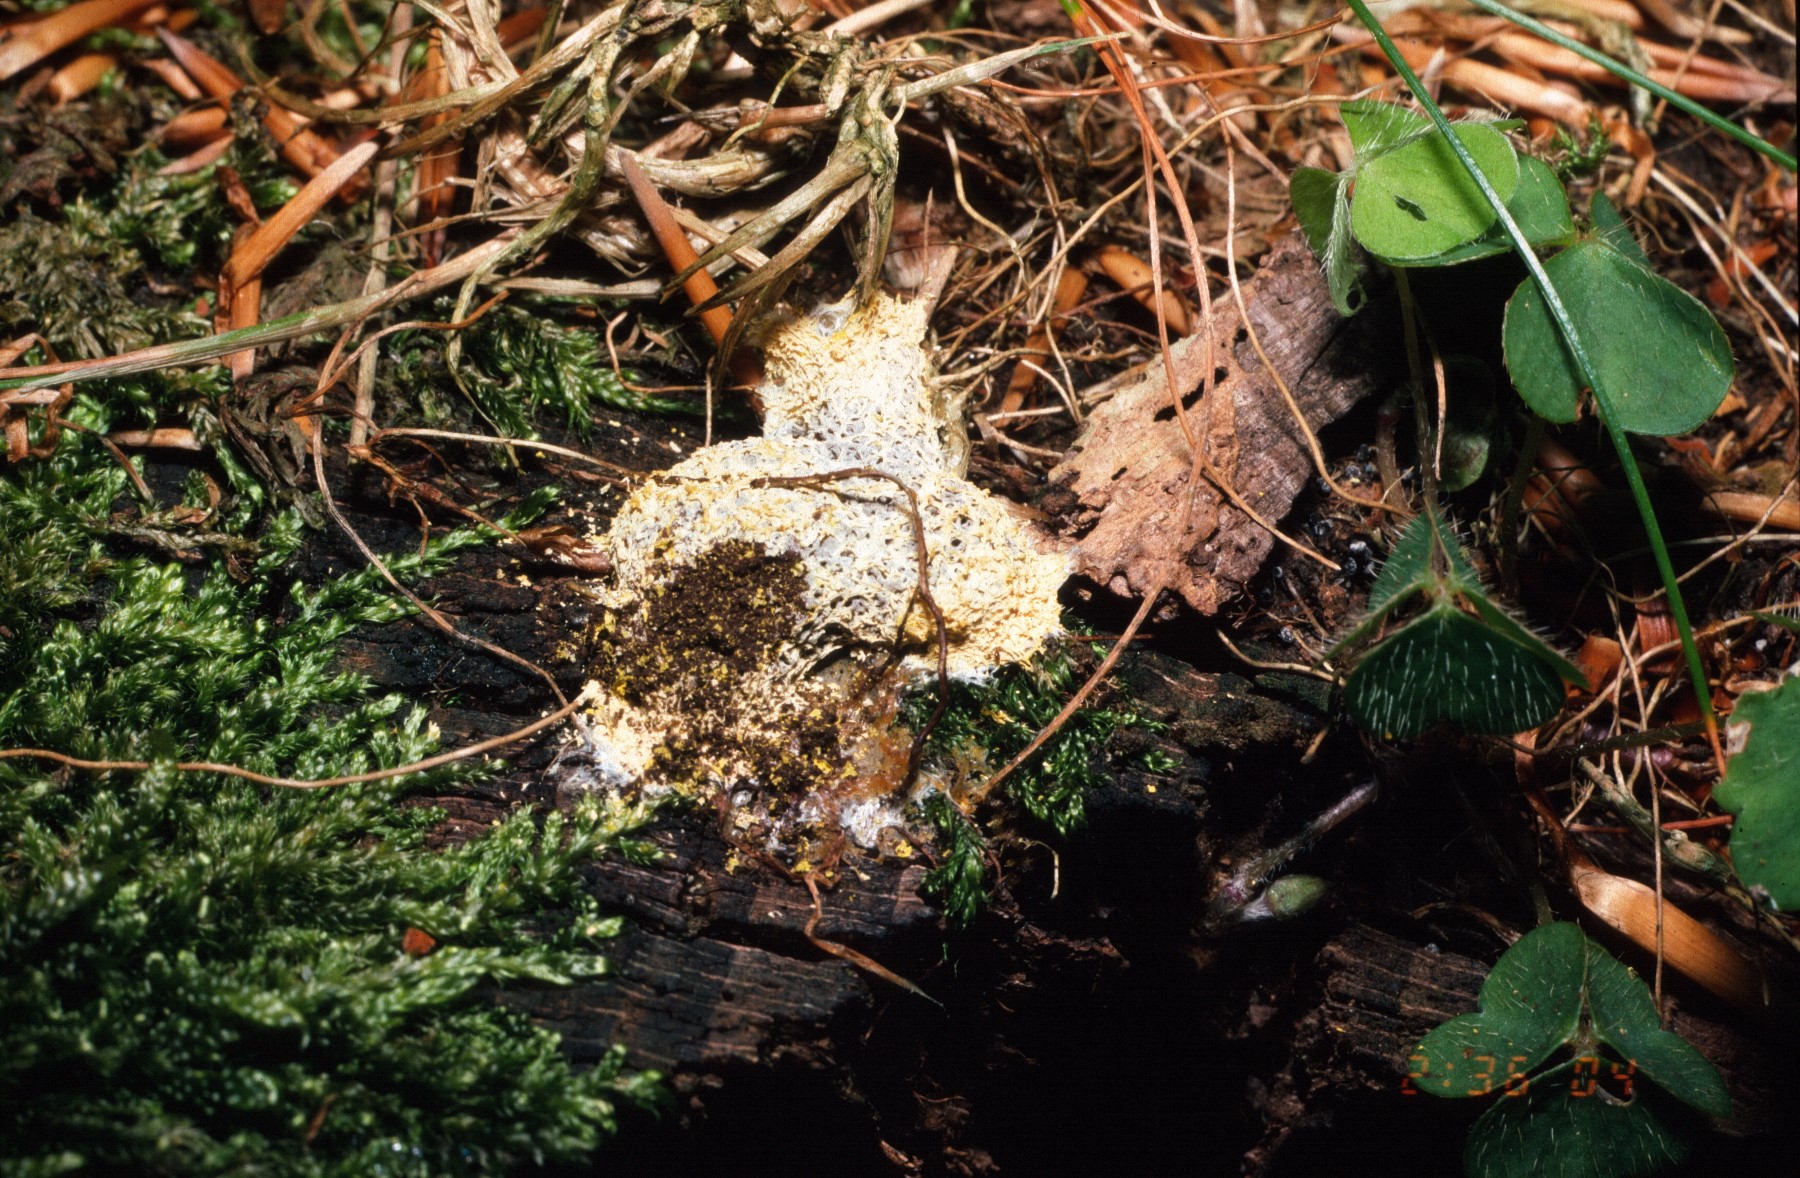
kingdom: Protozoa
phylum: Mycetozoa
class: Myxomycetes
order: Physarales
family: Physaraceae
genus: Fuligo
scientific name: Fuligo septica
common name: gul troldsmør
